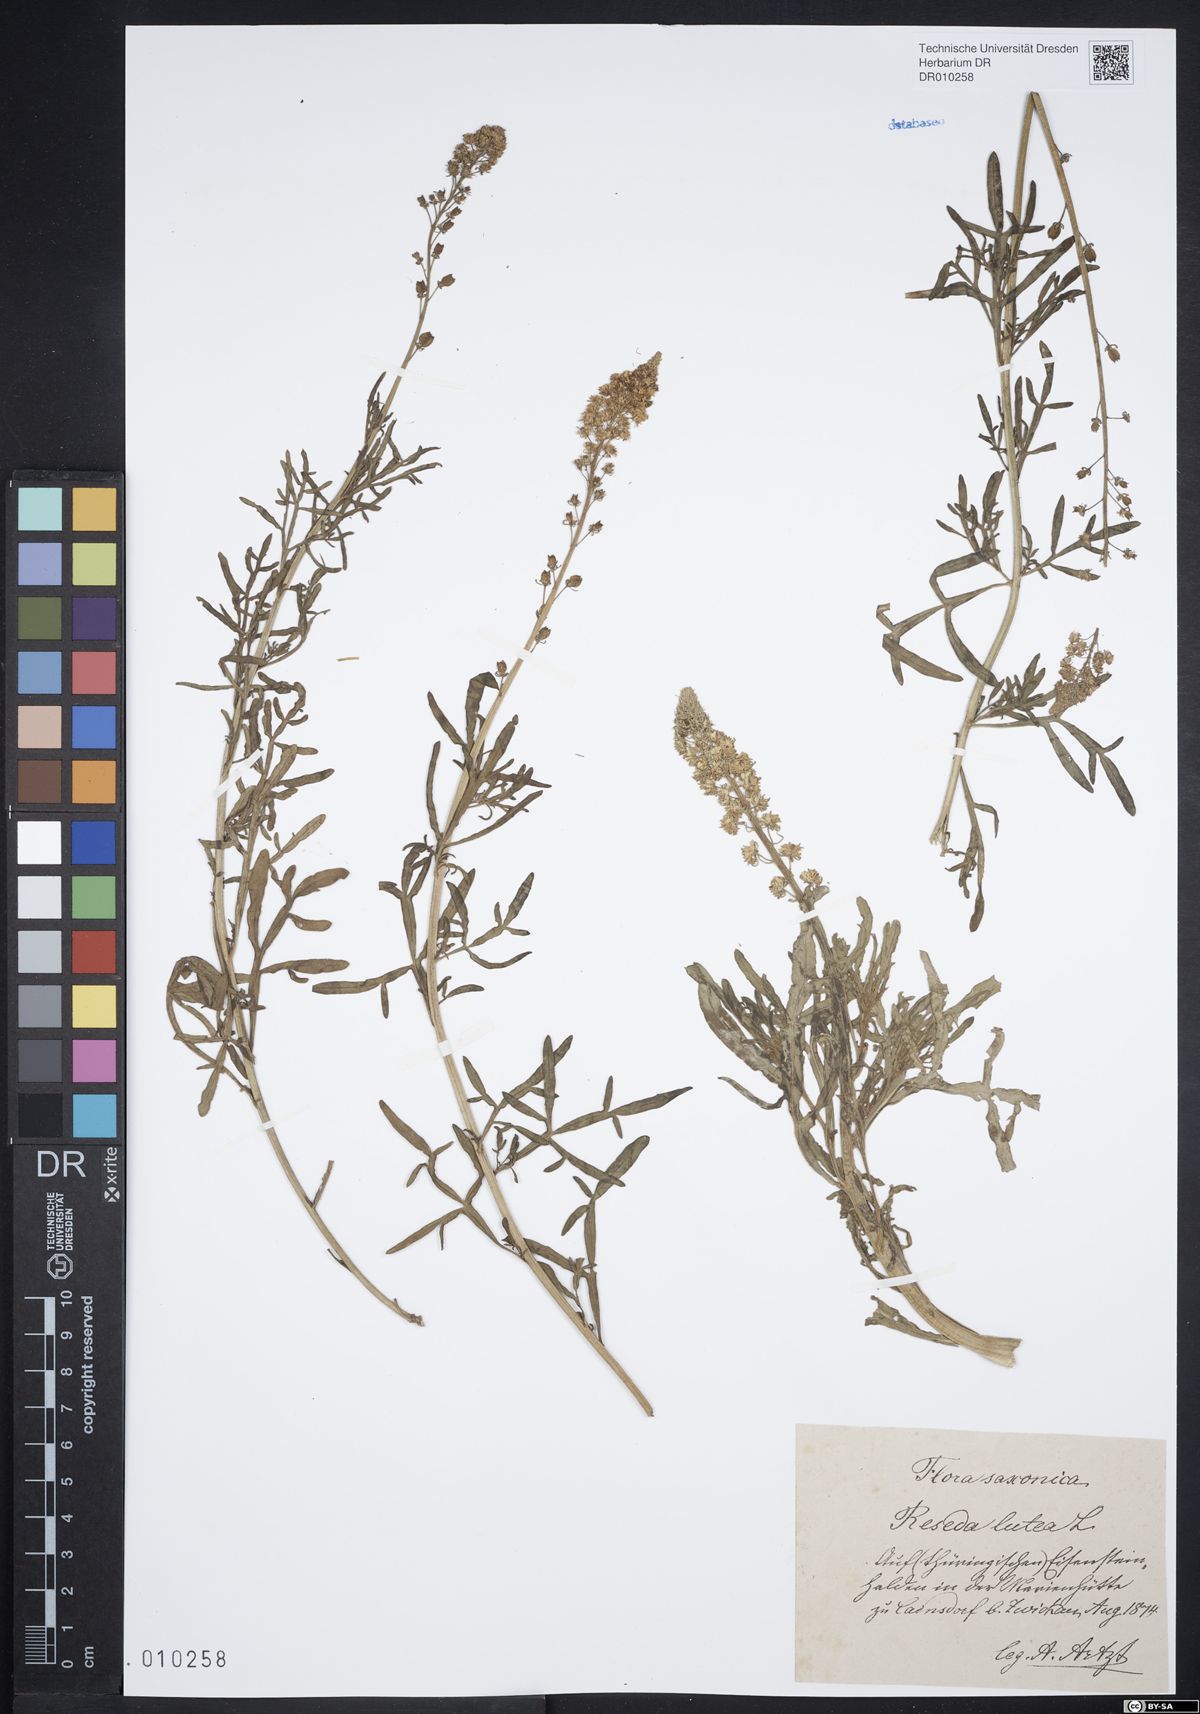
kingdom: Plantae
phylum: Tracheophyta
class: Magnoliopsida
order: Brassicales
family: Resedaceae
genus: Reseda
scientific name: Reseda lutea
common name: Wild mignonette
